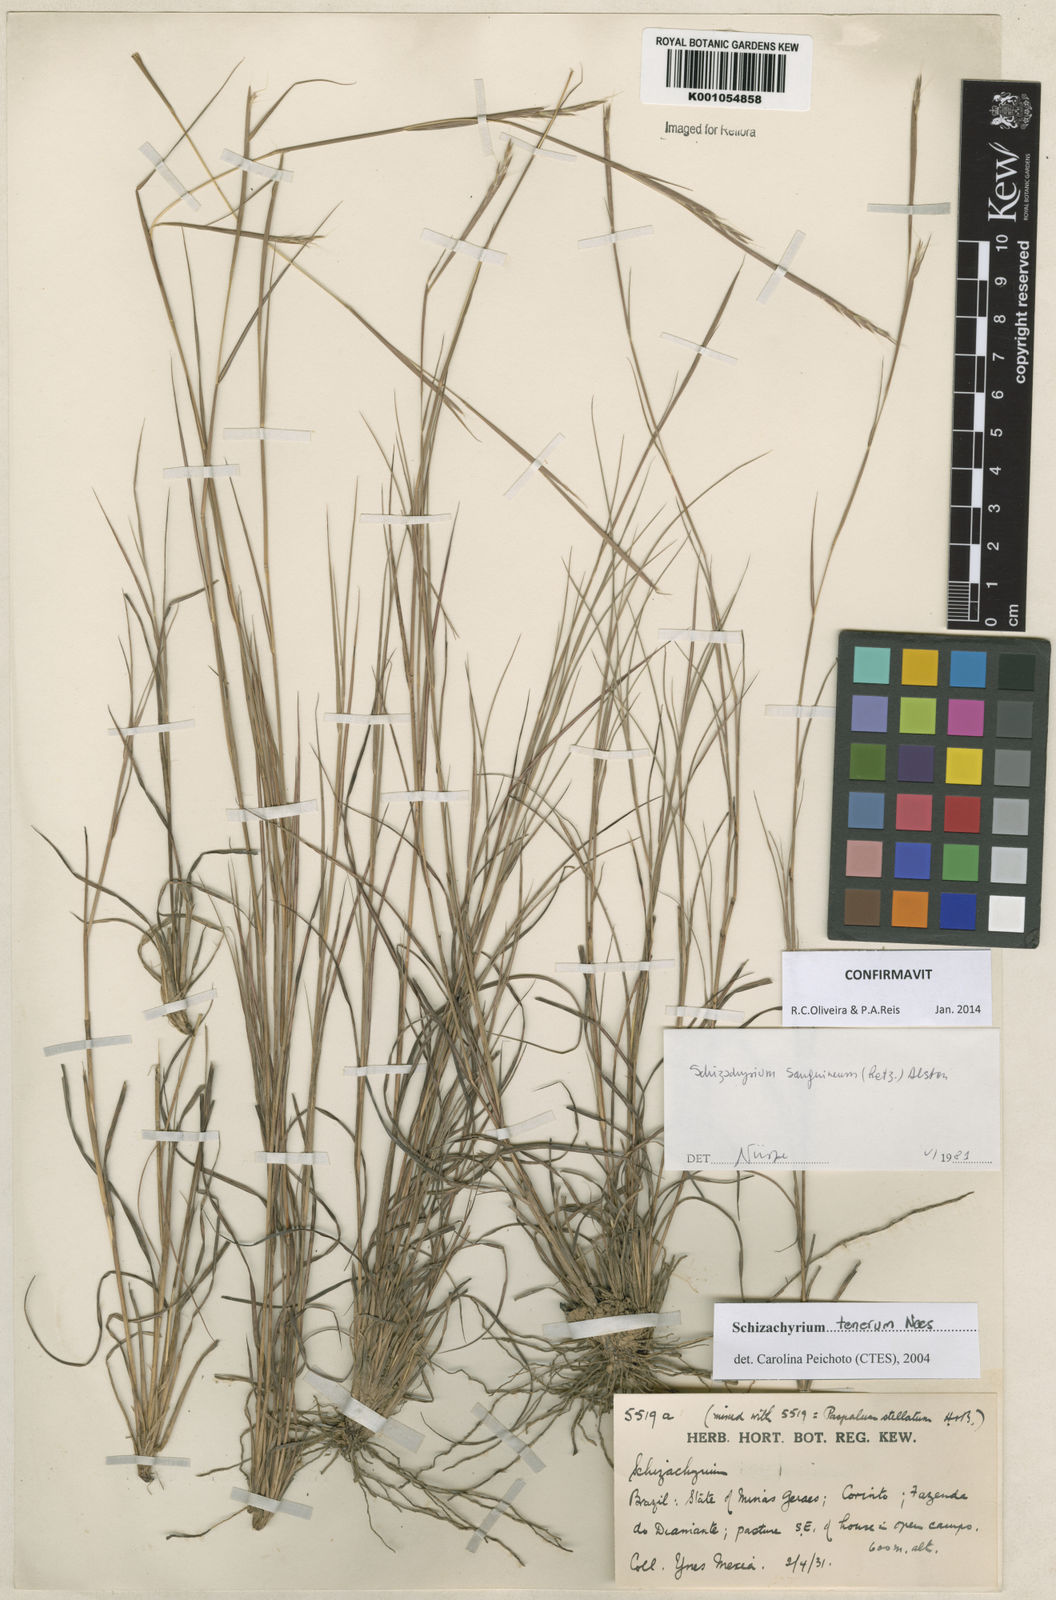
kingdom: Plantae
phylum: Tracheophyta
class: Liliopsida
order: Poales
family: Poaceae
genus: Andropogon
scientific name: Andropogon tener
